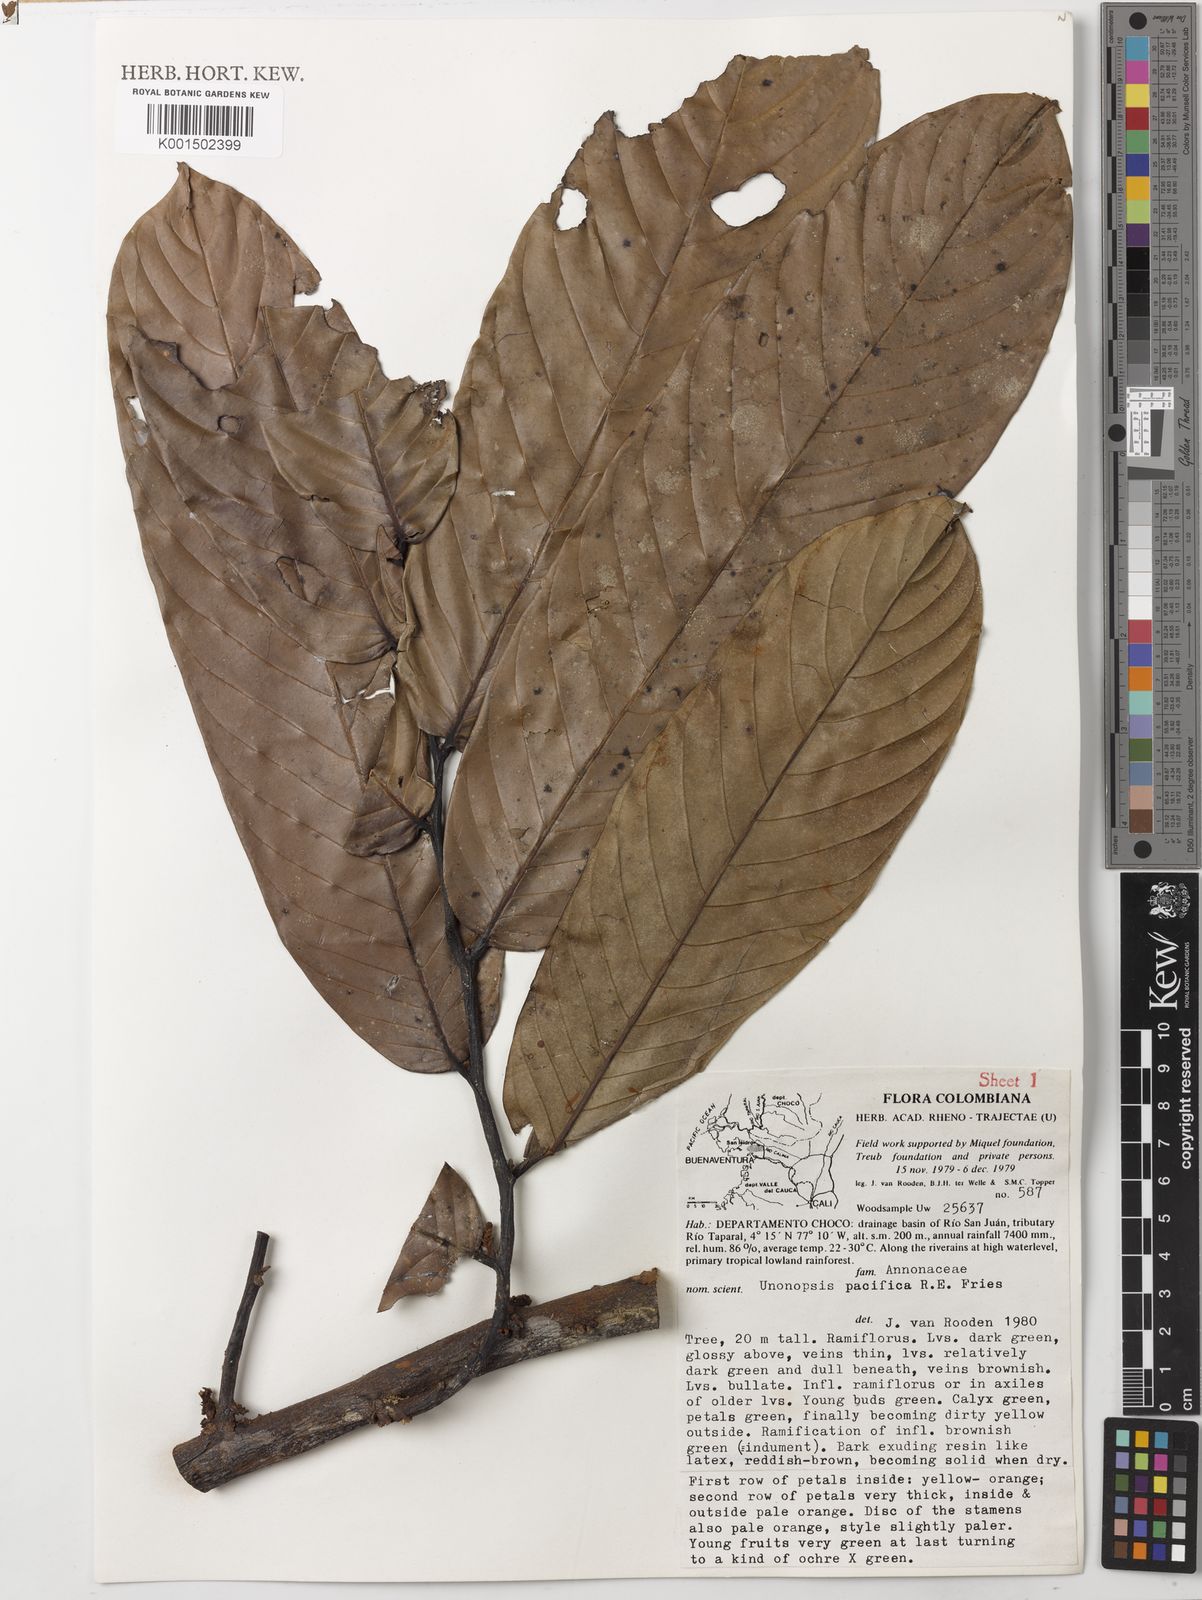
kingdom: Plantae
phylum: Tracheophyta
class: Magnoliopsida
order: Magnoliales
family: Annonaceae
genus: Unonopsis
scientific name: Unonopsis pacifica
